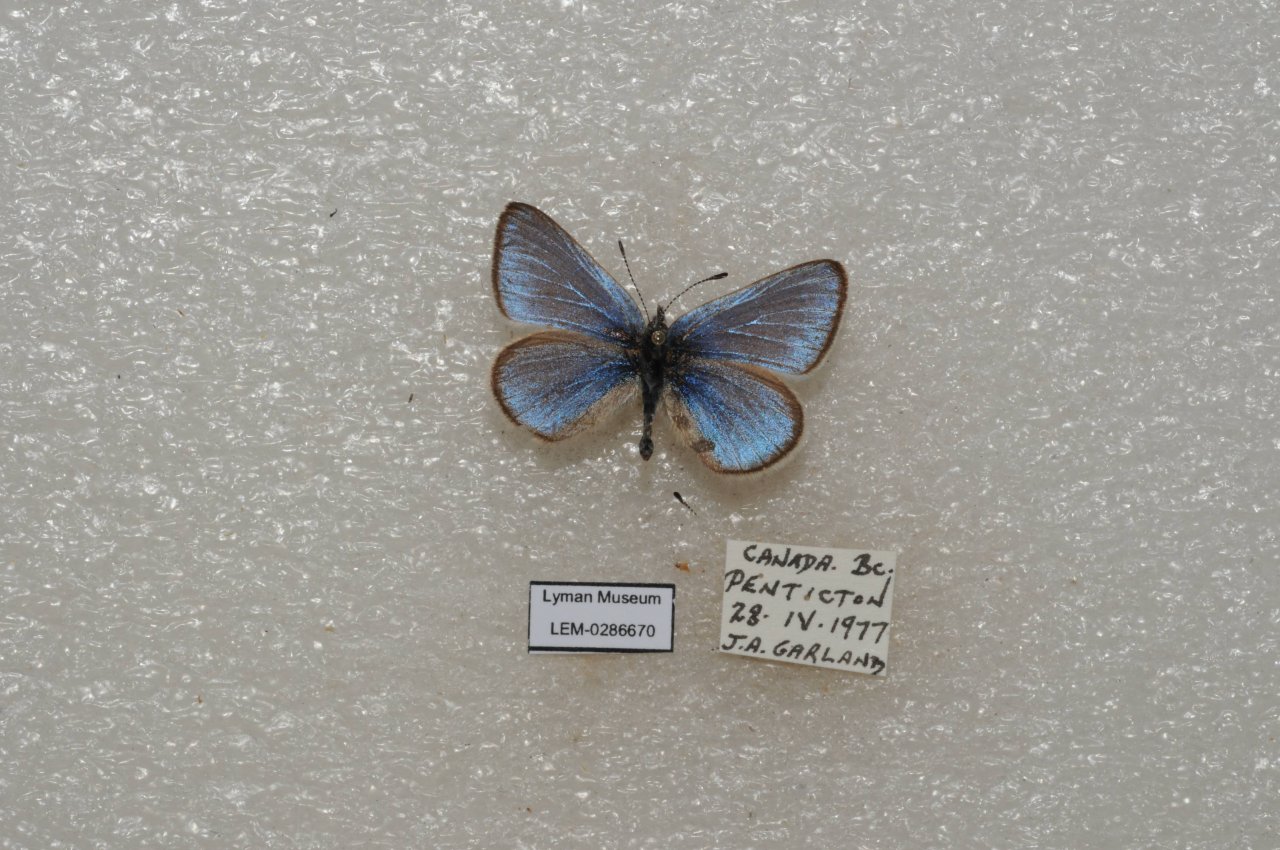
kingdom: Animalia
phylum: Arthropoda
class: Insecta
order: Lepidoptera
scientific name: Lepidoptera
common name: Butterflies
